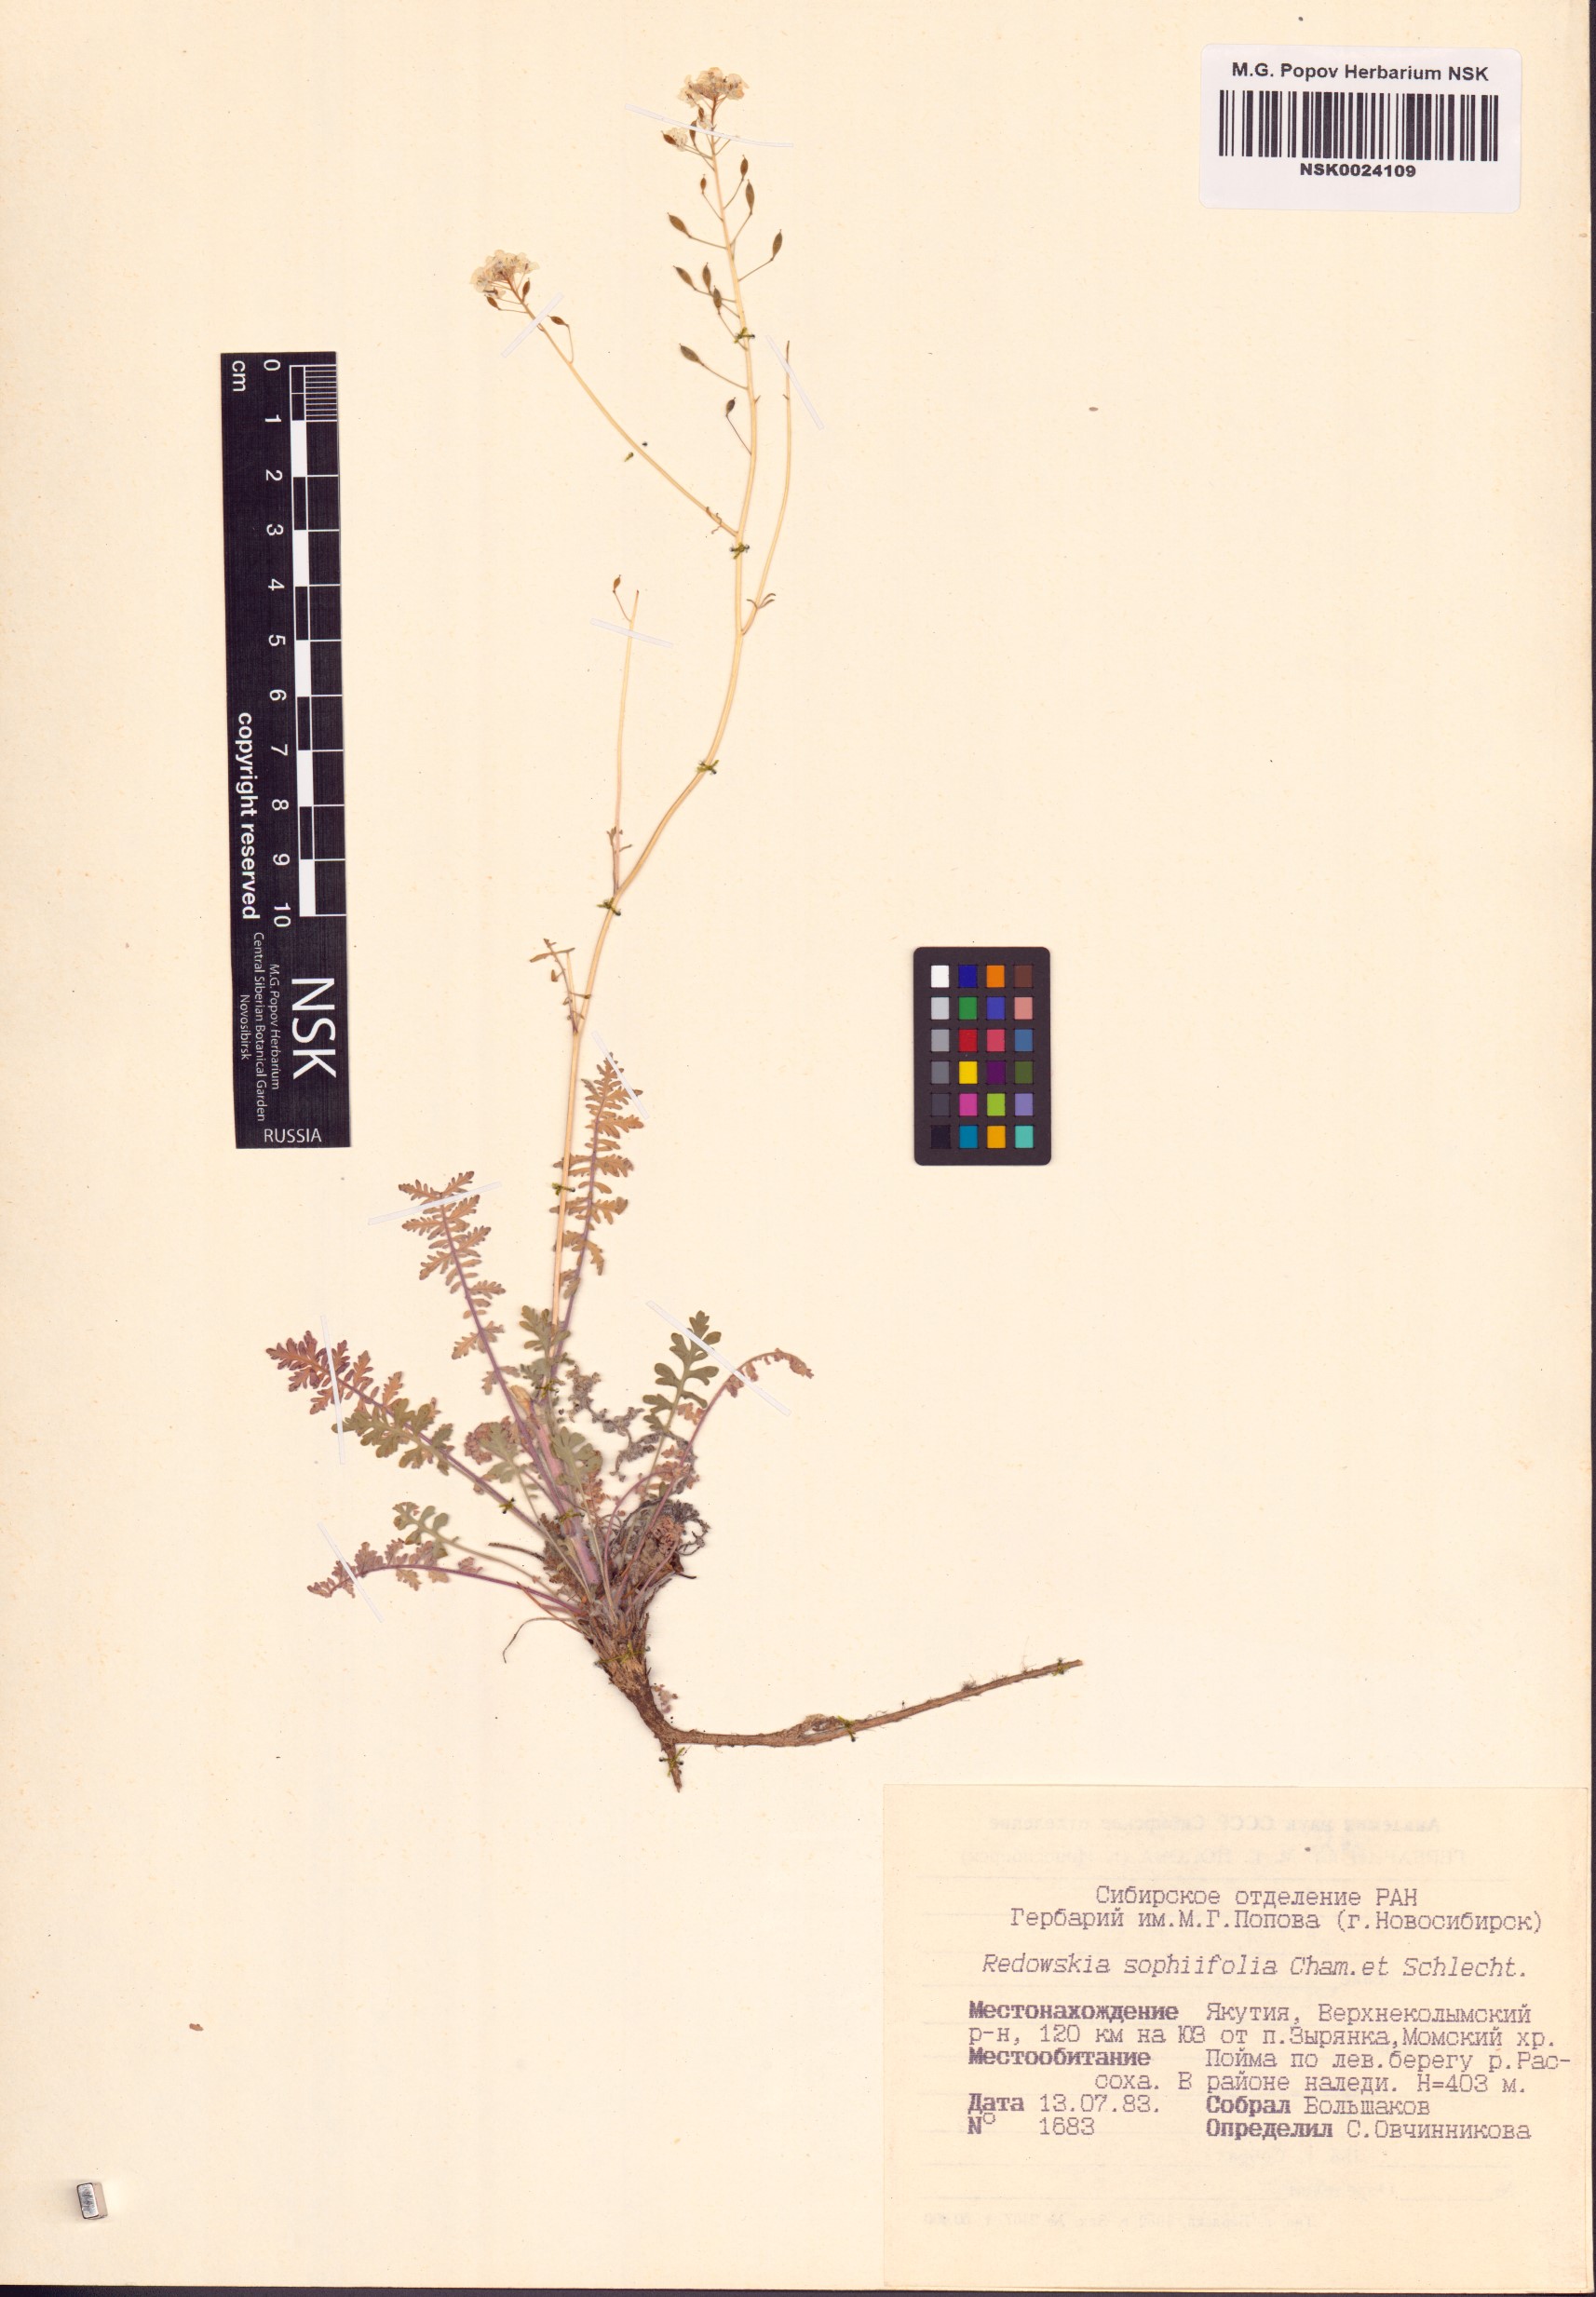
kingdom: Plantae
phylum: Tracheophyta
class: Magnoliopsida
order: Brassicales
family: Brassicaceae
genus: Smelowskia
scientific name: Smelowskia sophiifolia
